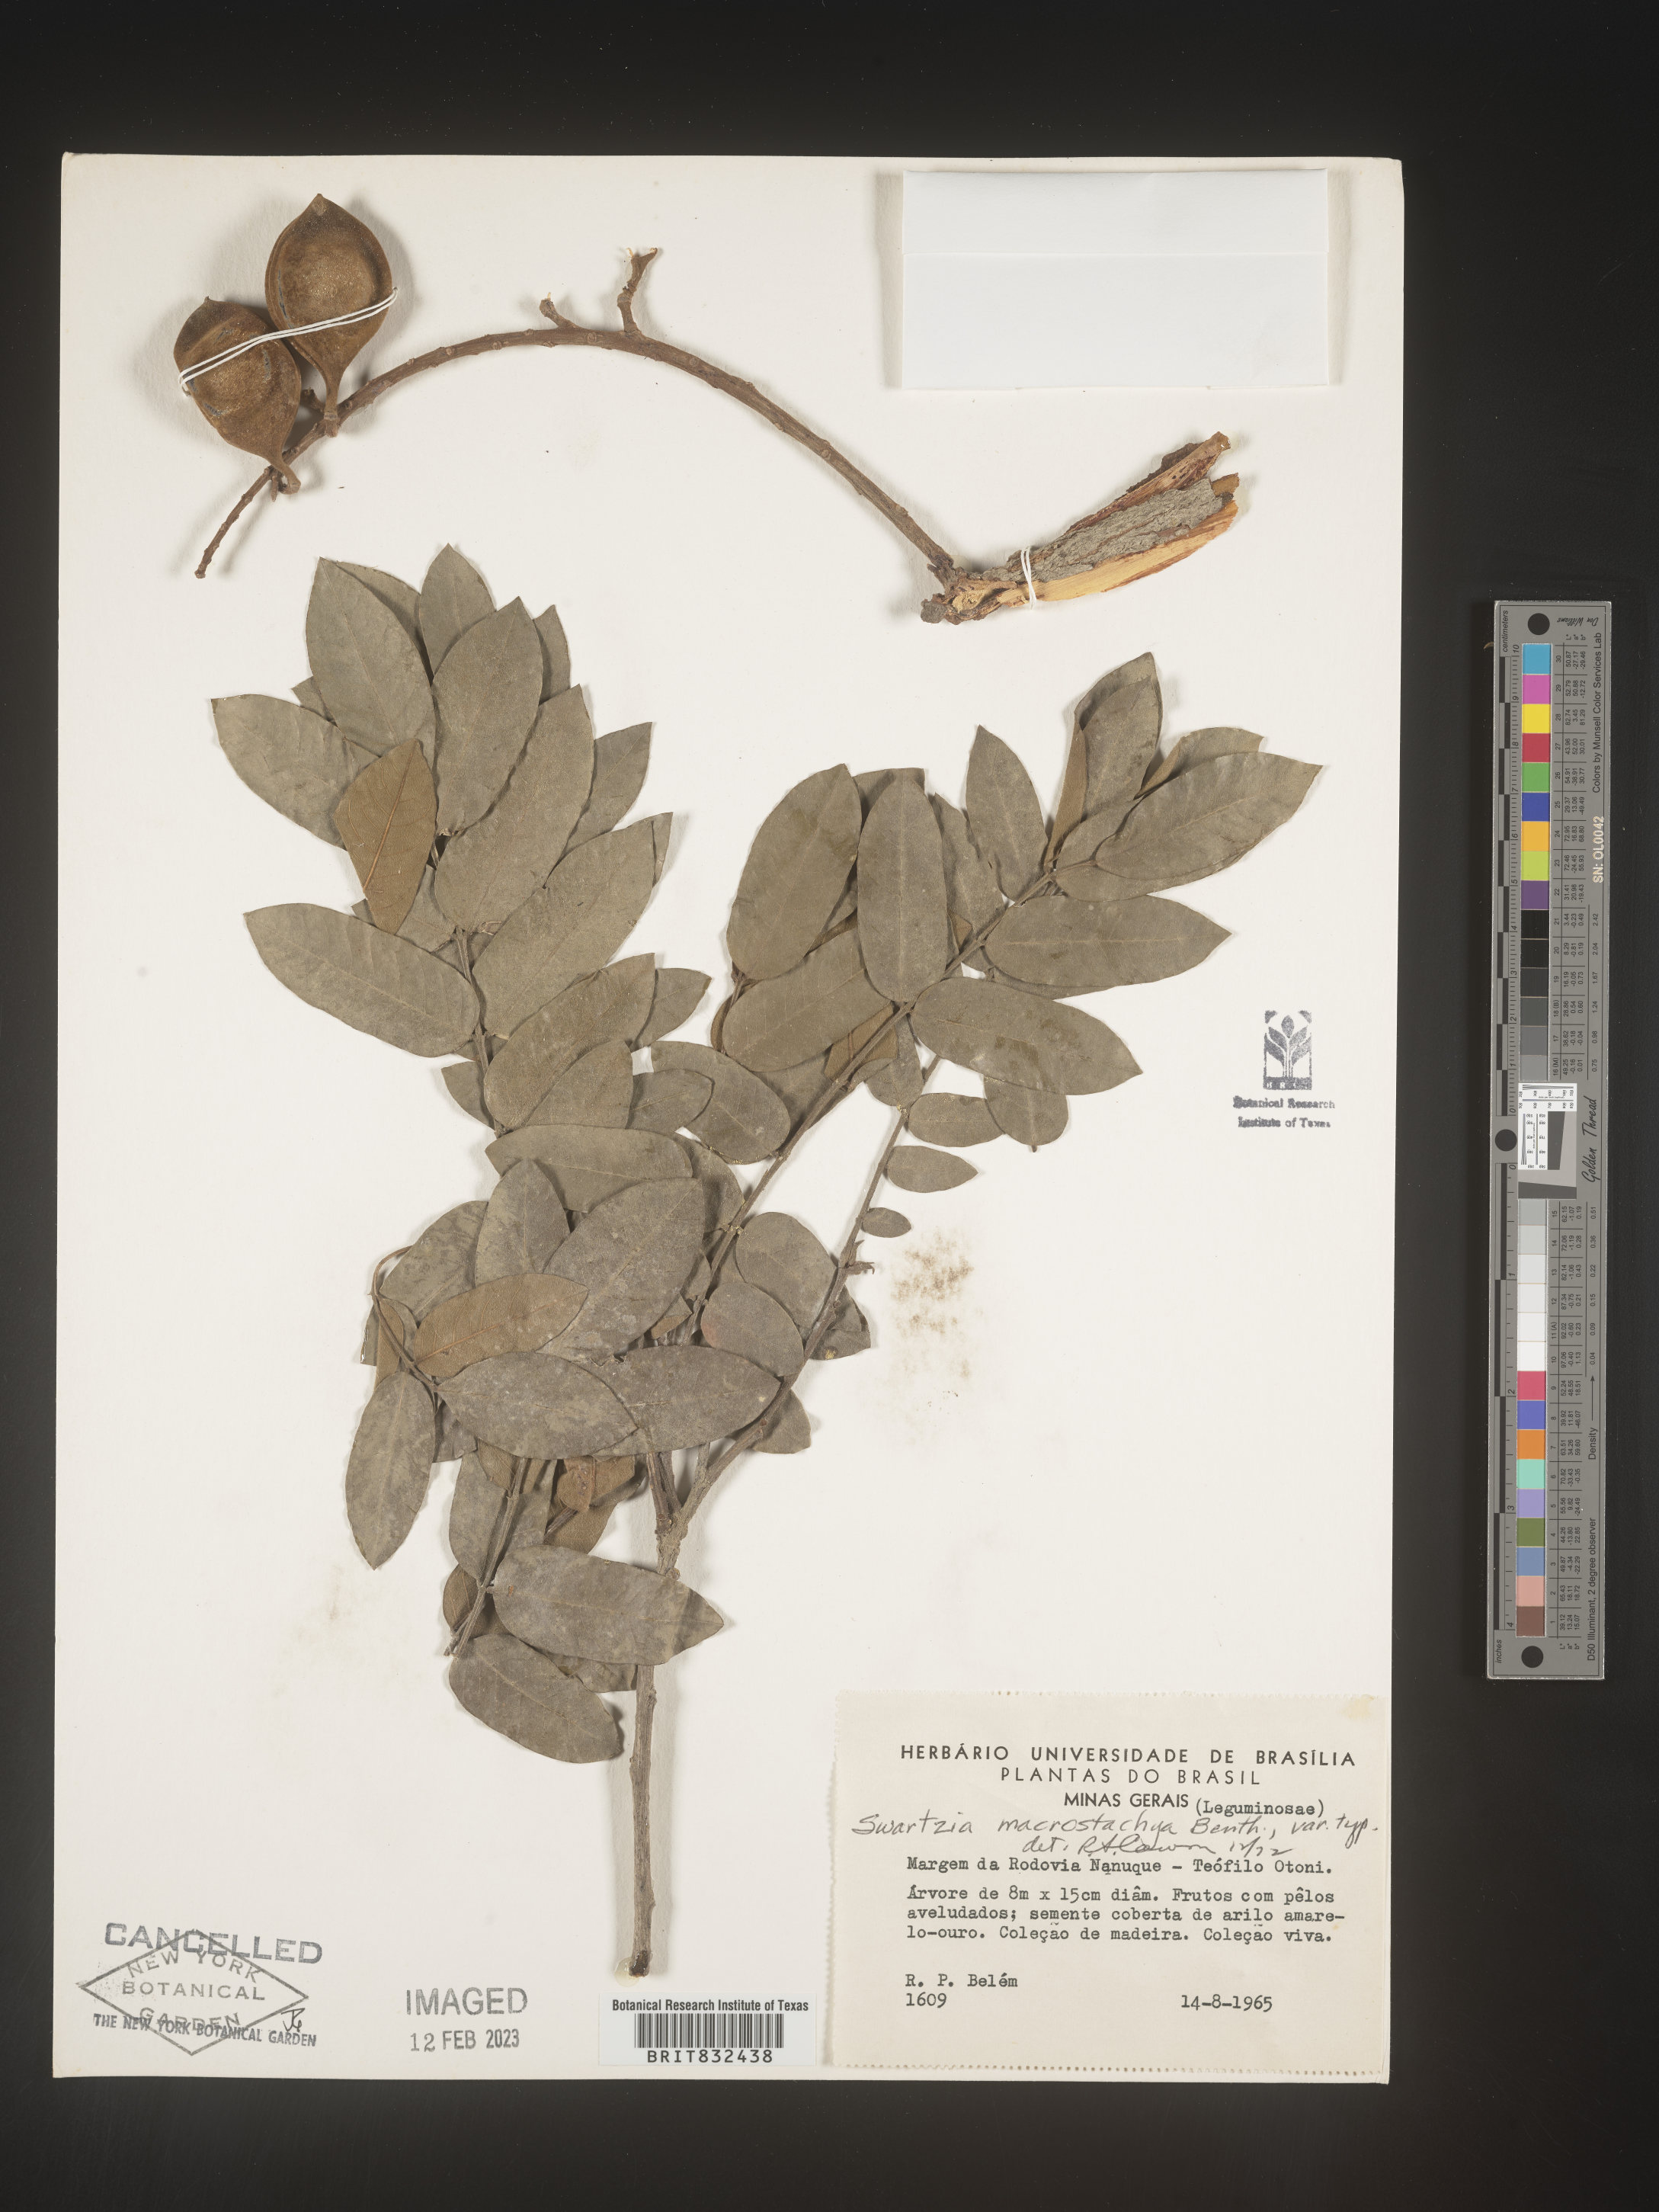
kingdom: Plantae
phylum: Tracheophyta
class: Magnoliopsida
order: Fabales
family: Fabaceae
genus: Swartzia
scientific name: Swartzia
